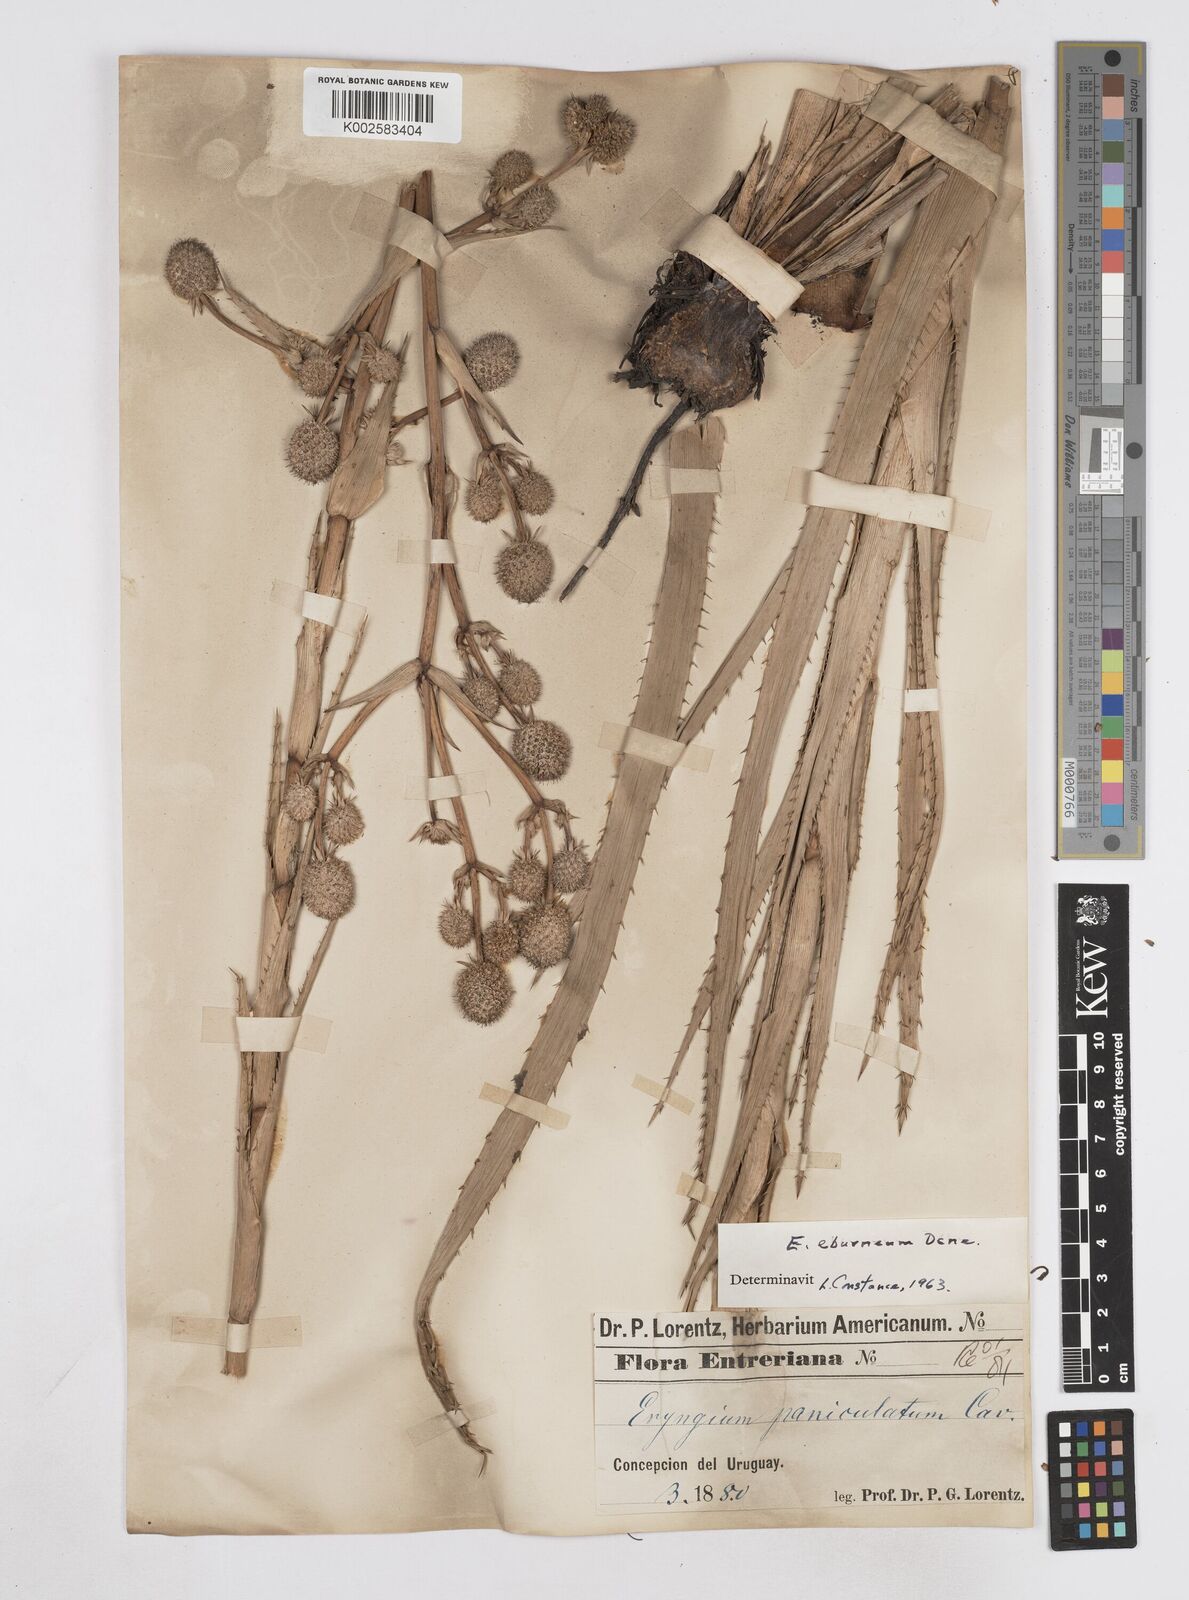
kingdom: Plantae
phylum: Tracheophyta
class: Magnoliopsida
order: Apiales
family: Apiaceae
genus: Eryngium
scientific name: Eryngium eburneum
